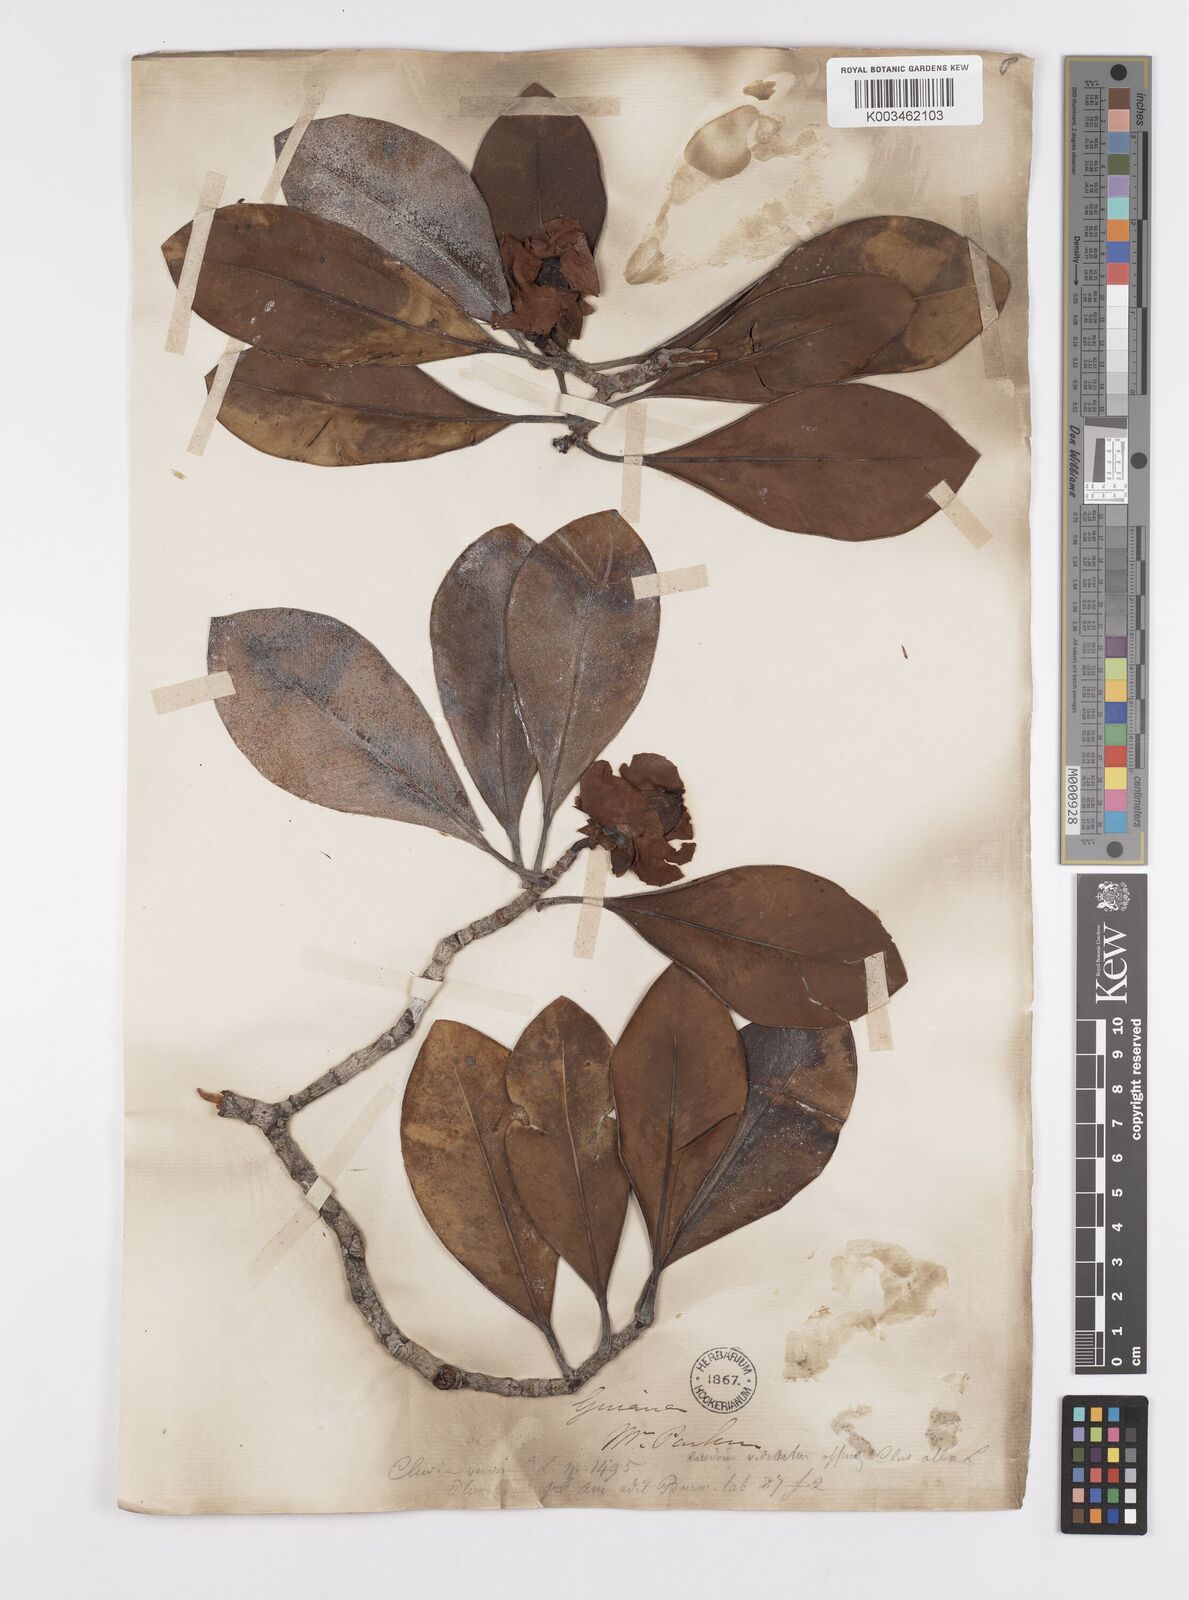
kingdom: Plantae
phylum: Tracheophyta
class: Magnoliopsida
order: Malpighiales
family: Clusiaceae
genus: Clusia
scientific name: Clusia minor
